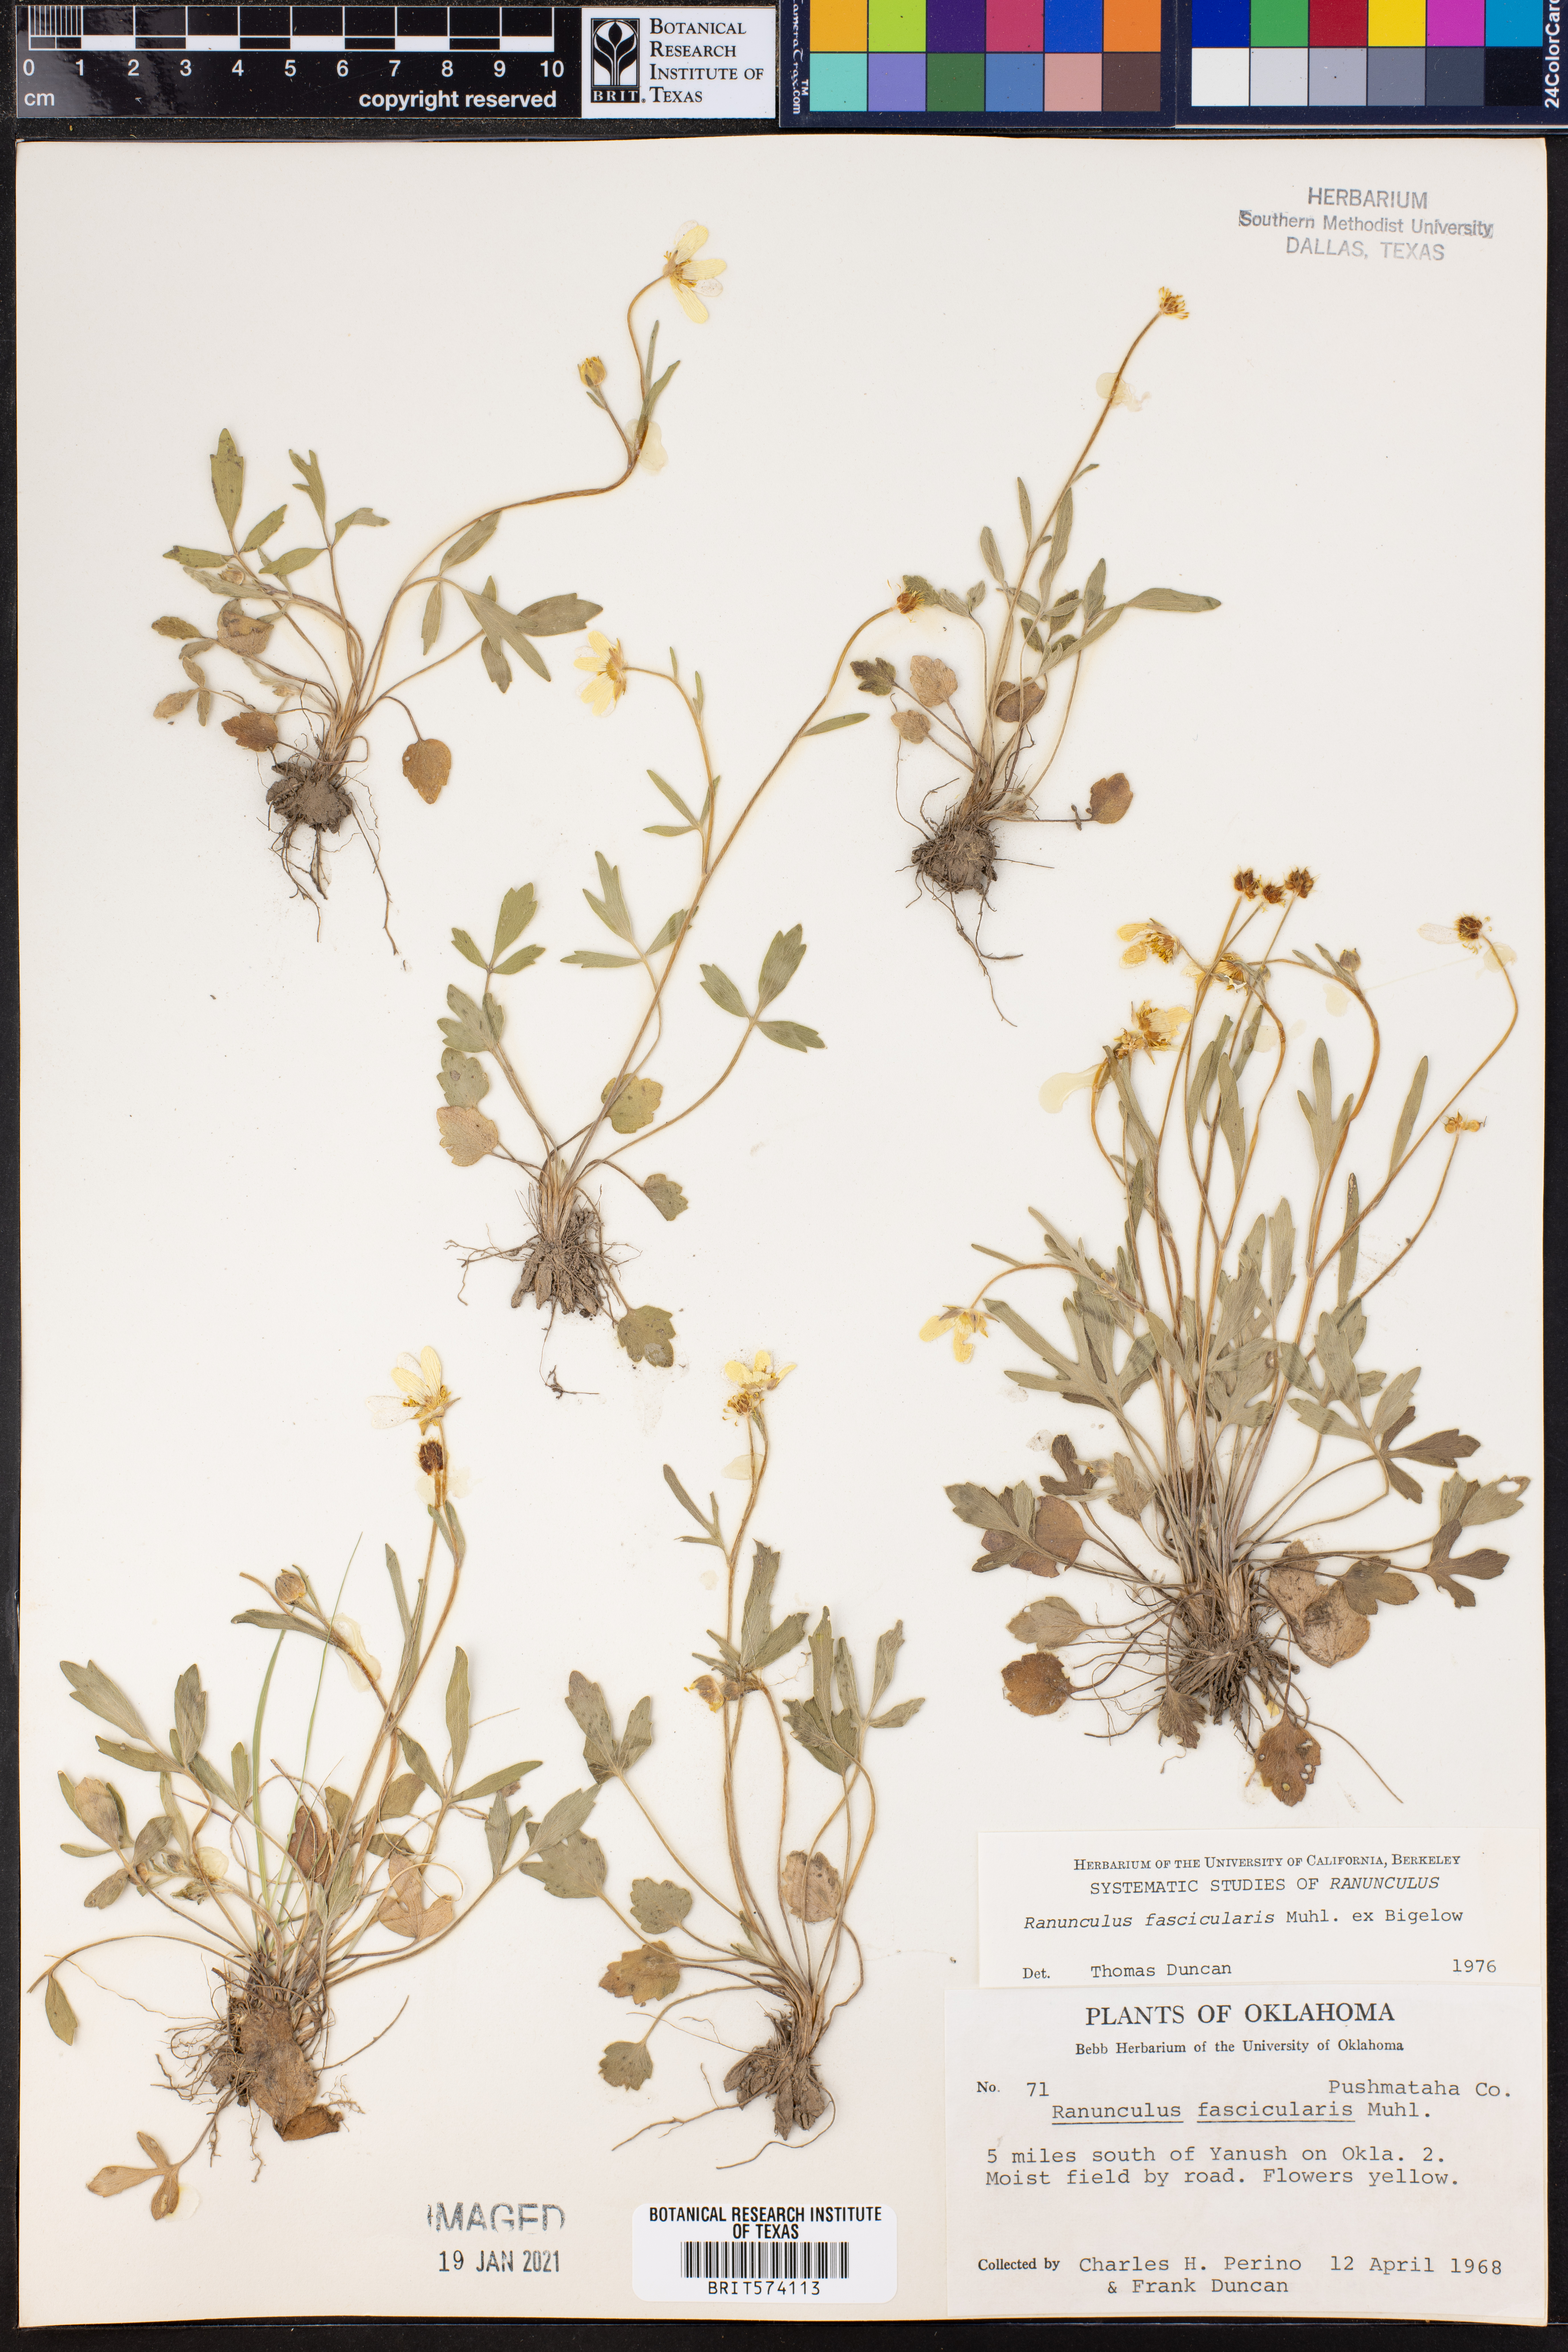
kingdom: Plantae
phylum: Tracheophyta
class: Magnoliopsida
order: Ranunculales
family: Ranunculaceae
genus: Ranunculus
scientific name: Ranunculus fascicularis
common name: Early buttercup
